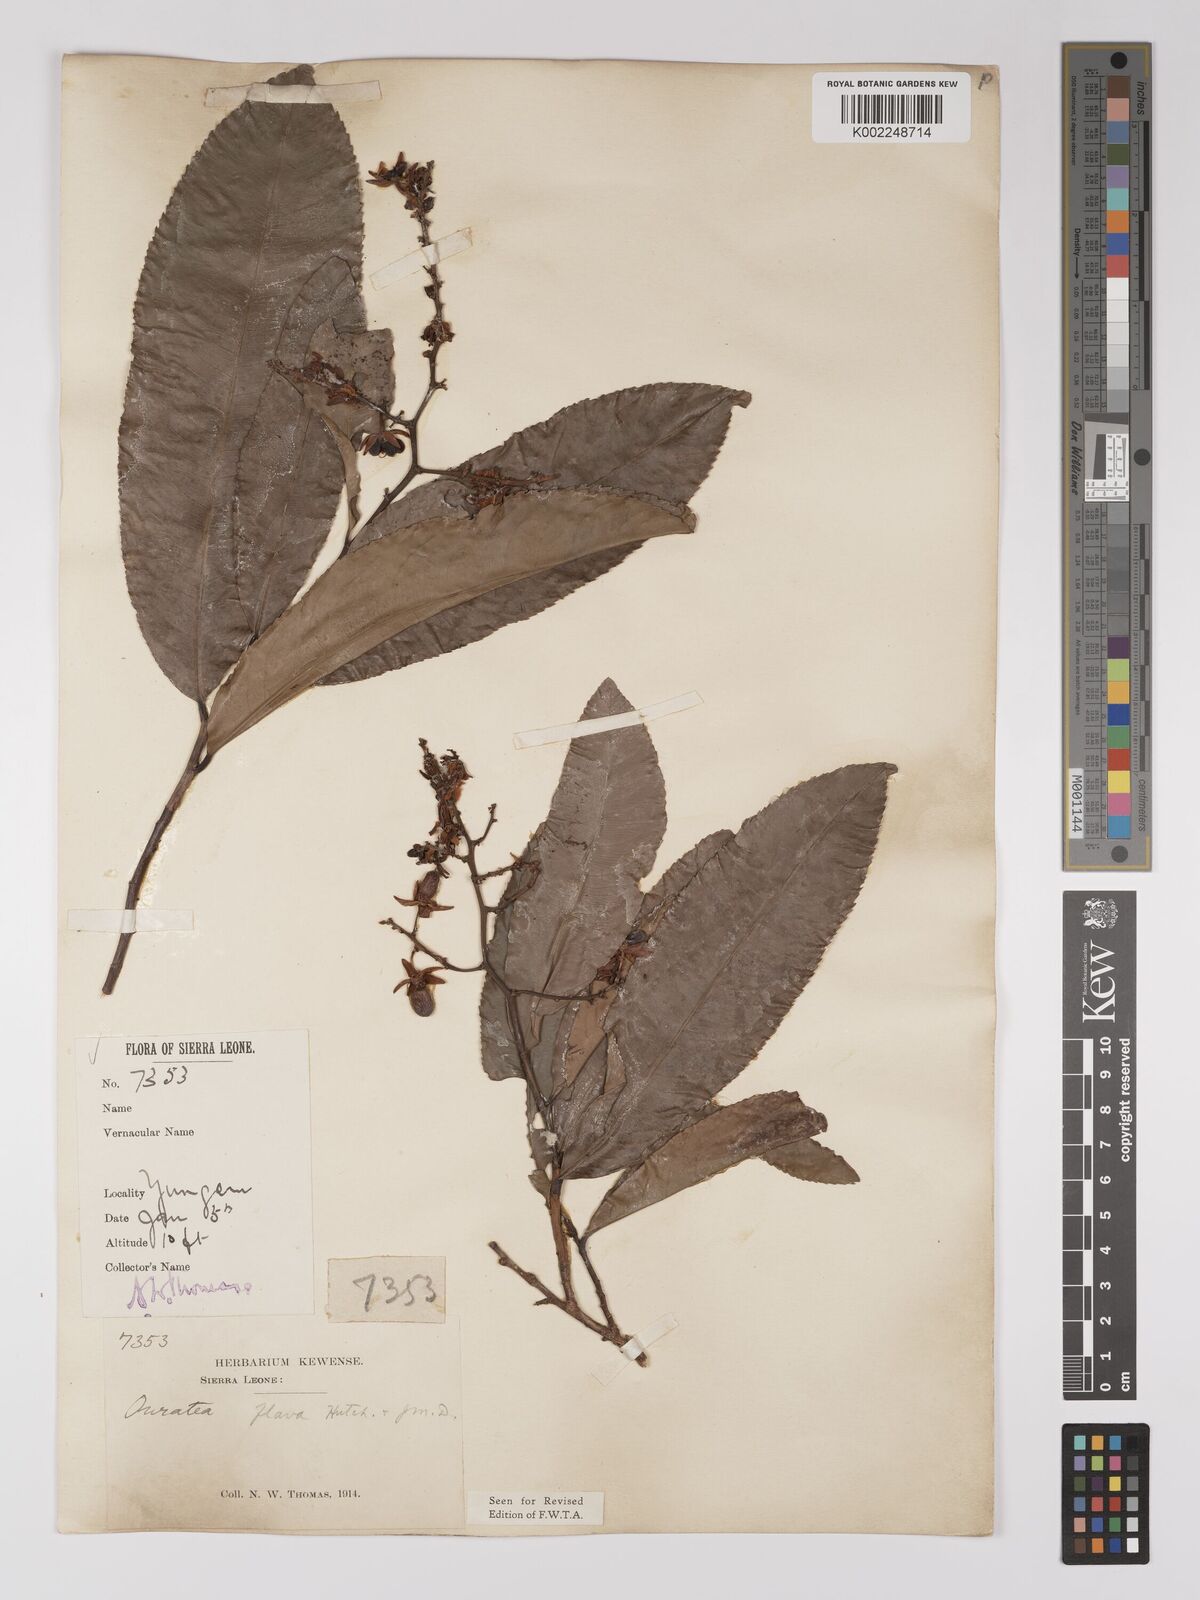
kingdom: Plantae
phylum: Tracheophyta
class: Magnoliopsida
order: Malpighiales
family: Ochnaceae
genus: Campylospermum
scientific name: Campylospermum flavum
